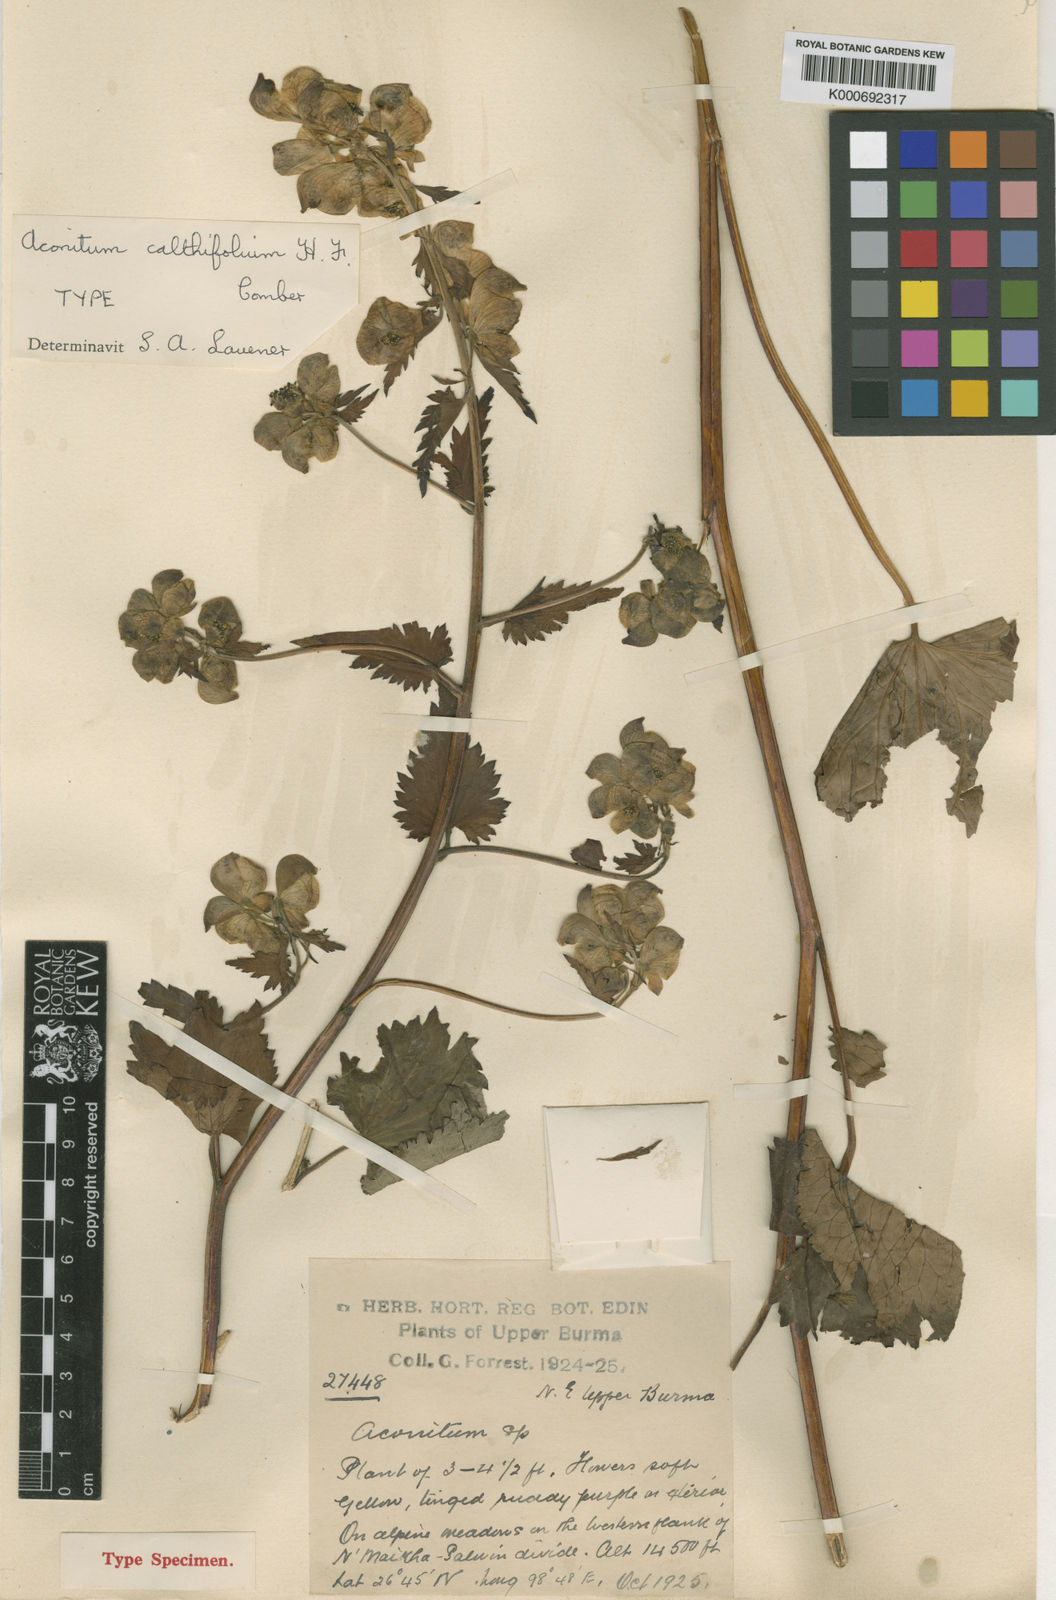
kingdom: Plantae
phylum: Tracheophyta
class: Magnoliopsida
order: Ranunculales
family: Ranunculaceae
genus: Aconitum
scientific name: Aconitum calthifolium
